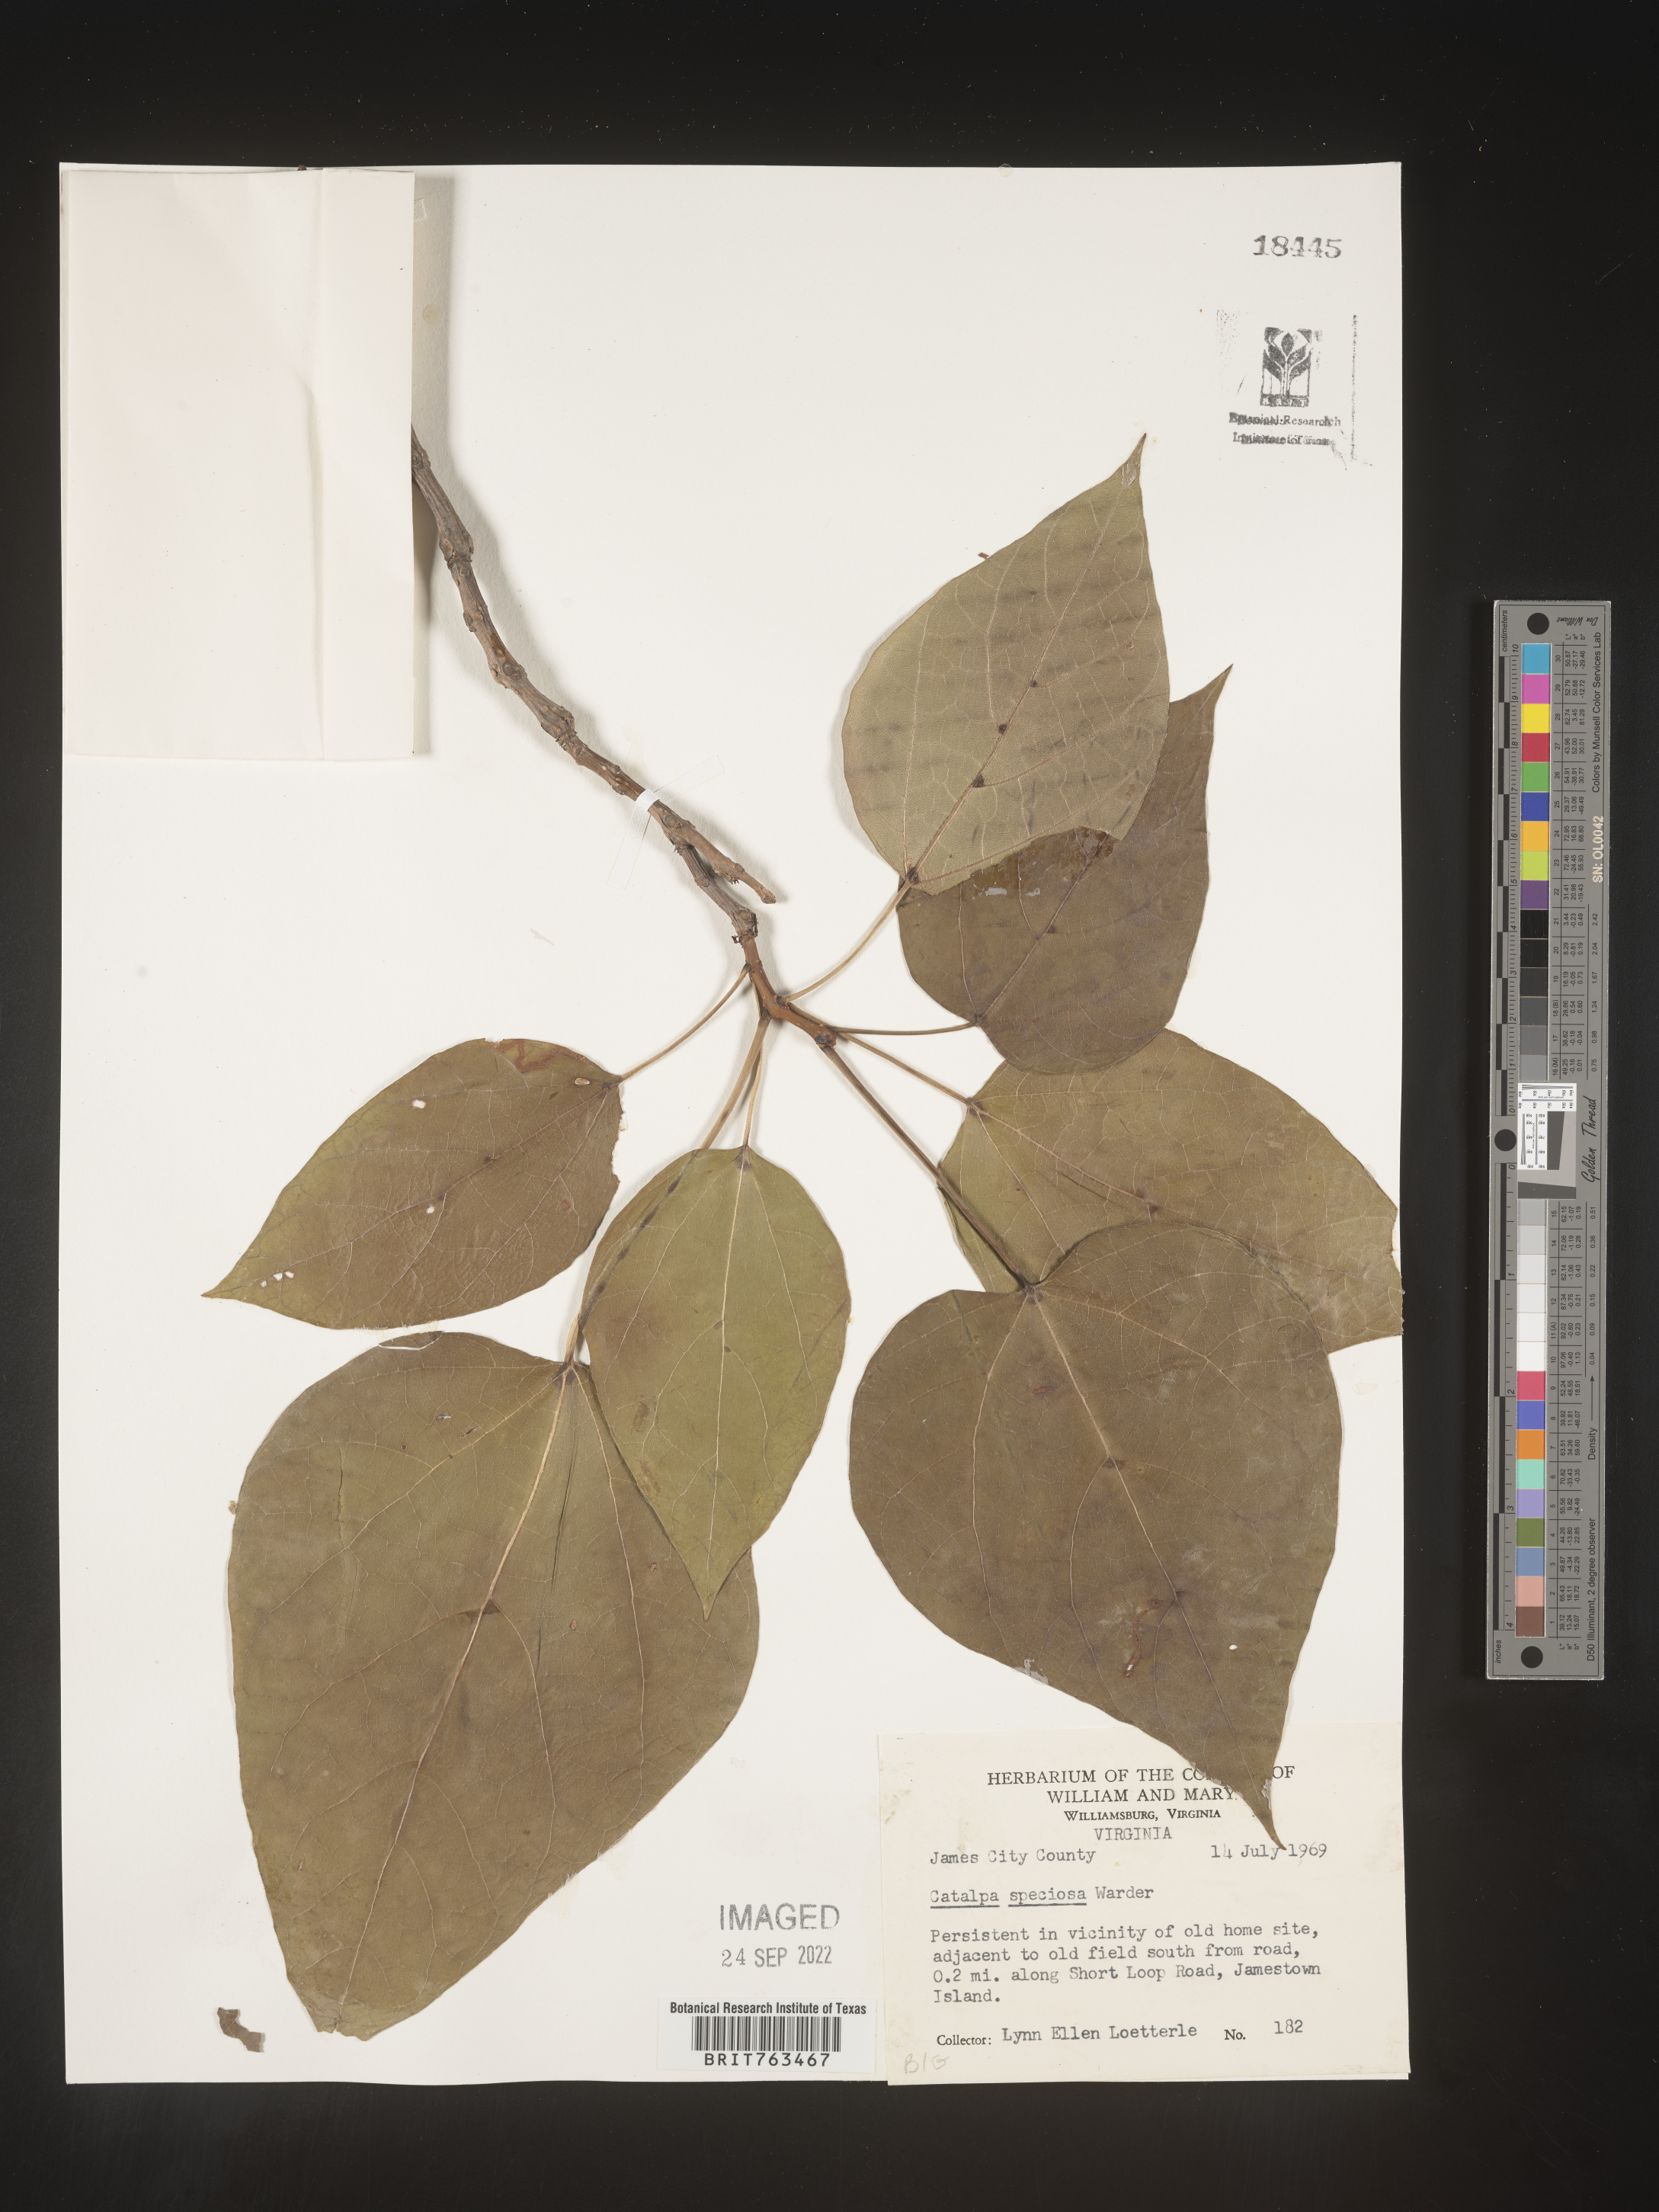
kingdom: Plantae
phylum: Tracheophyta
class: Magnoliopsida
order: Lamiales
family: Bignoniaceae
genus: Catalpa
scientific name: Catalpa speciosa
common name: Northern catalpa
